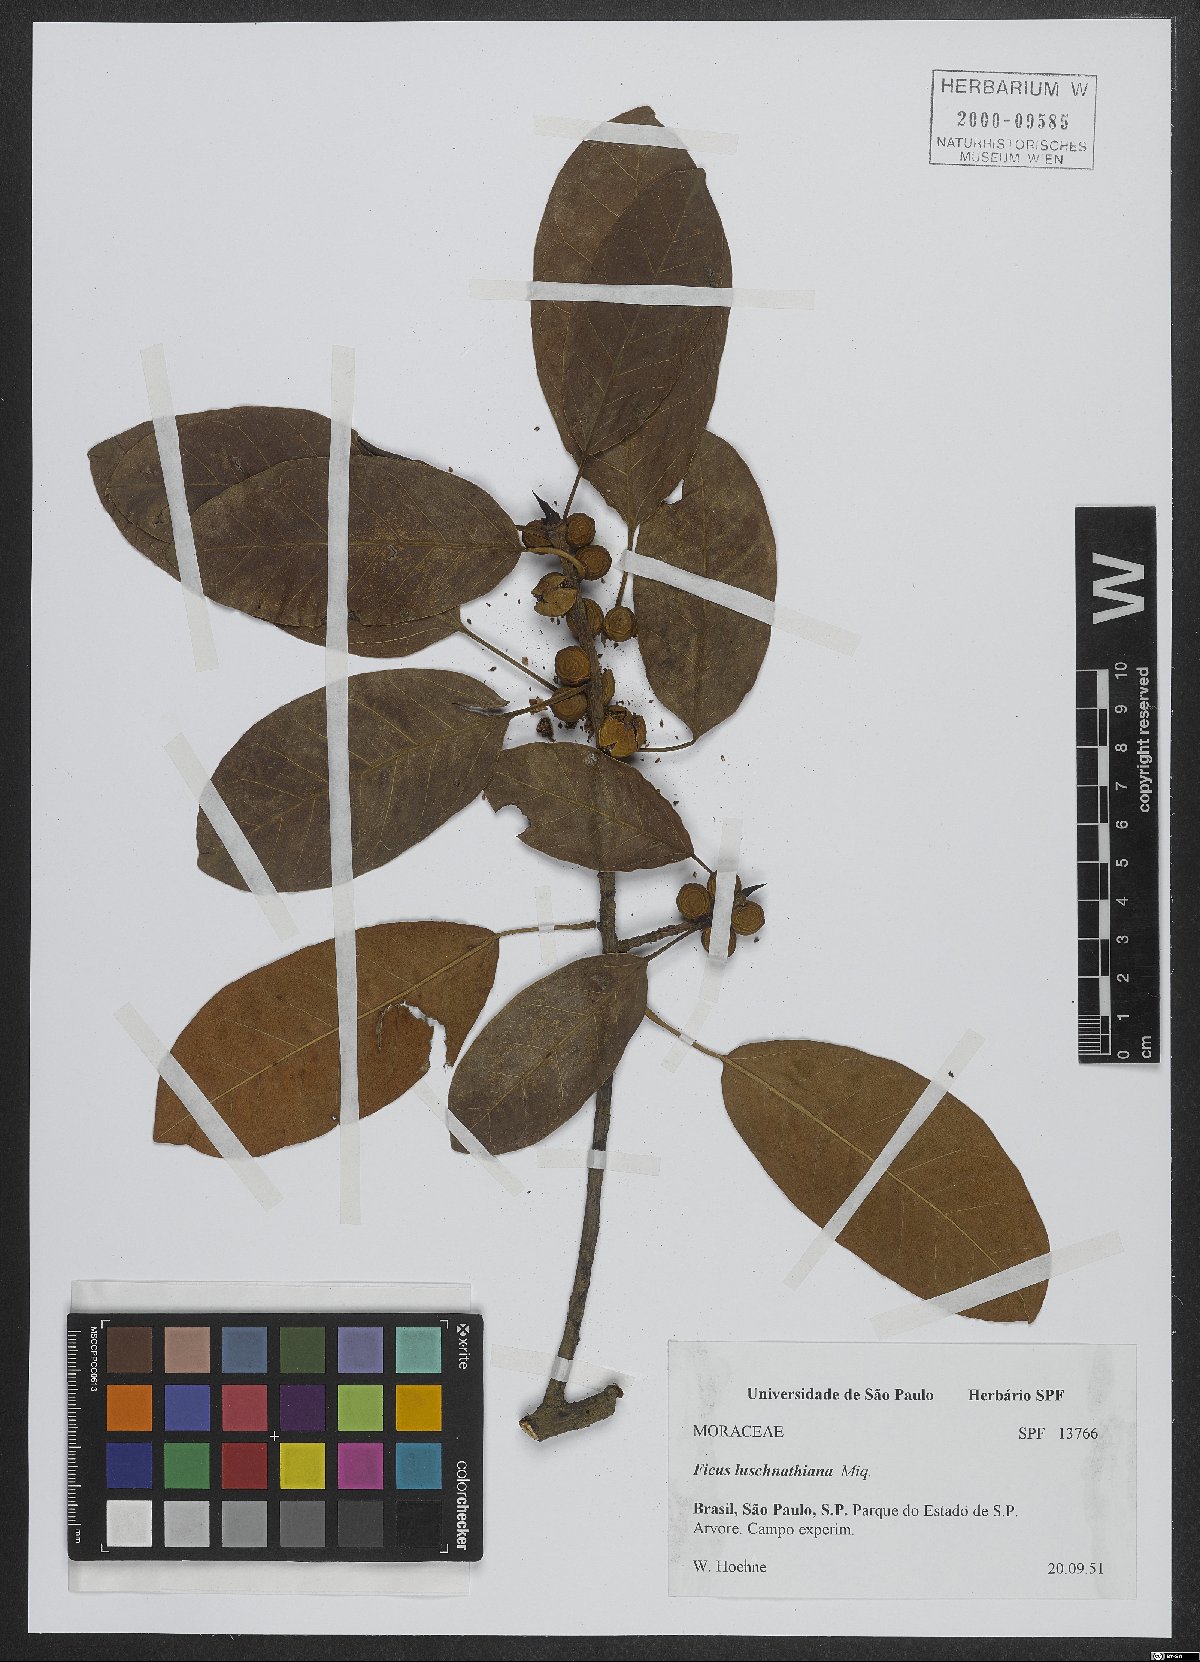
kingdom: Plantae
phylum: Tracheophyta
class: Magnoliopsida
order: Rosales
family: Moraceae
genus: Ficus
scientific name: Ficus luschnathiana
